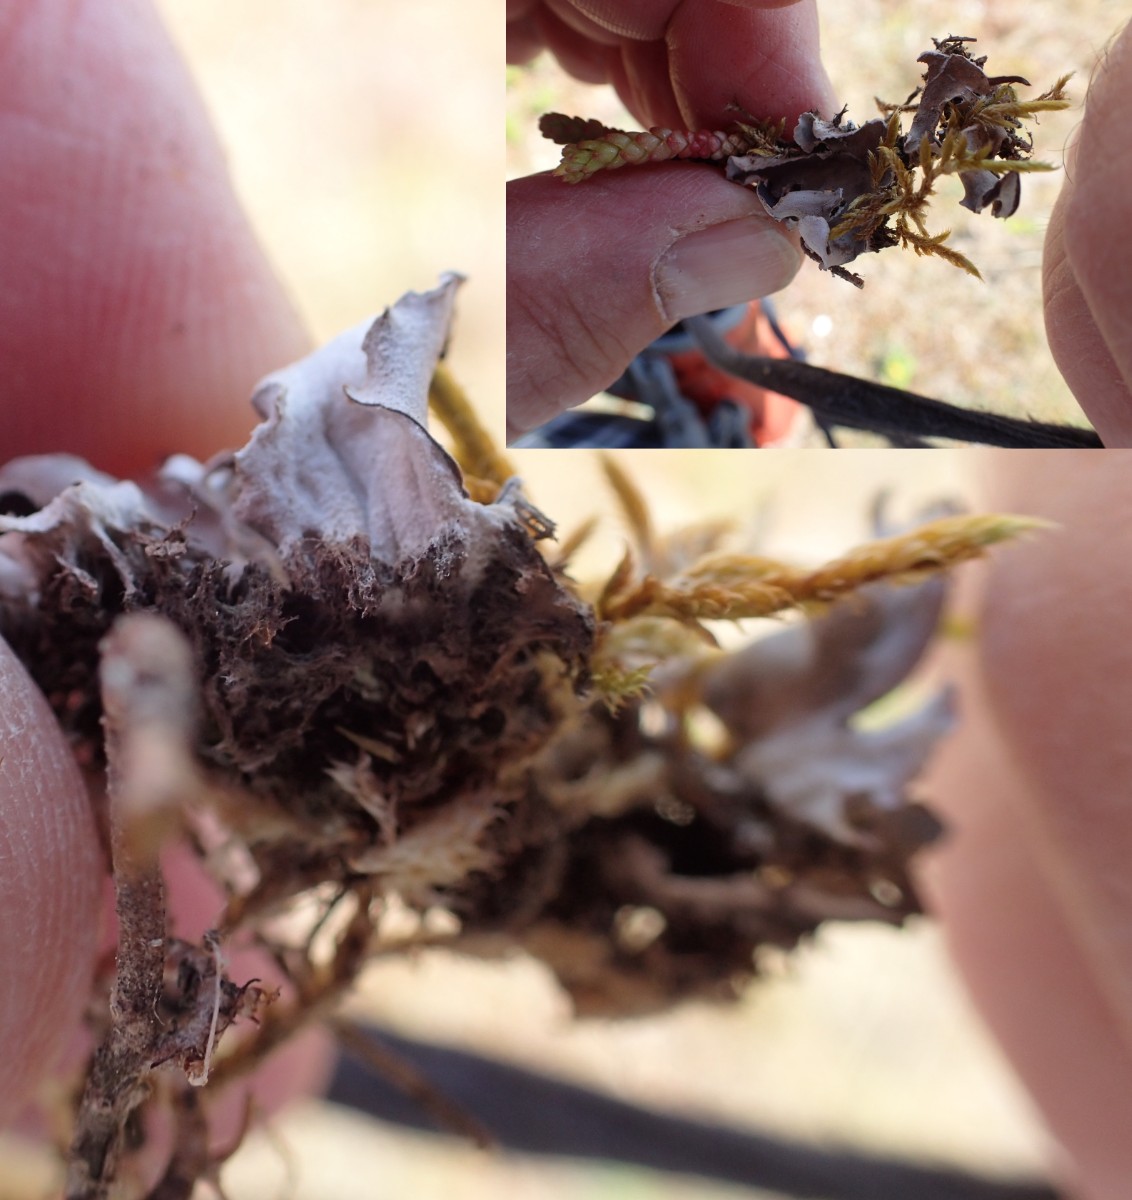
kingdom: Fungi
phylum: Ascomycota
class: Lecanoromycetes
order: Peltigerales
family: Peltigeraceae
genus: Peltigera
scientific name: Peltigera
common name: skjoldlav
